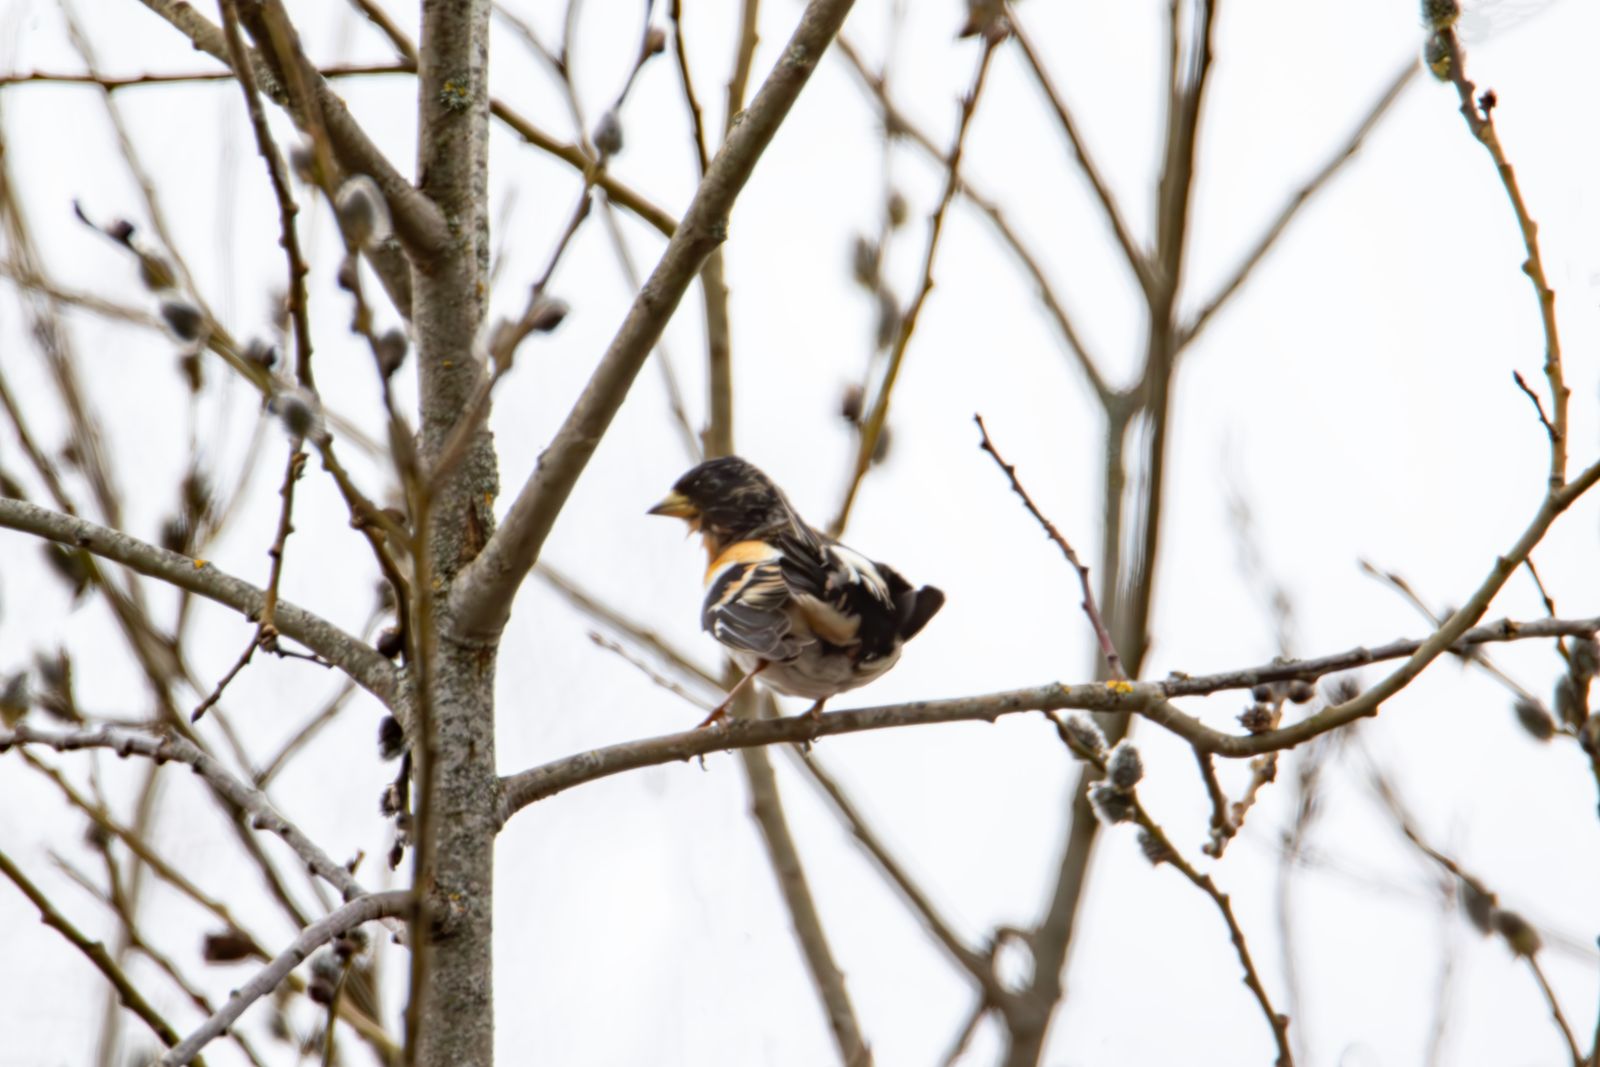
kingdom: Animalia
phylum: Chordata
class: Aves
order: Passeriformes
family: Fringillidae
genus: Fringilla
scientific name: Fringilla montifringilla
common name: Brambling
